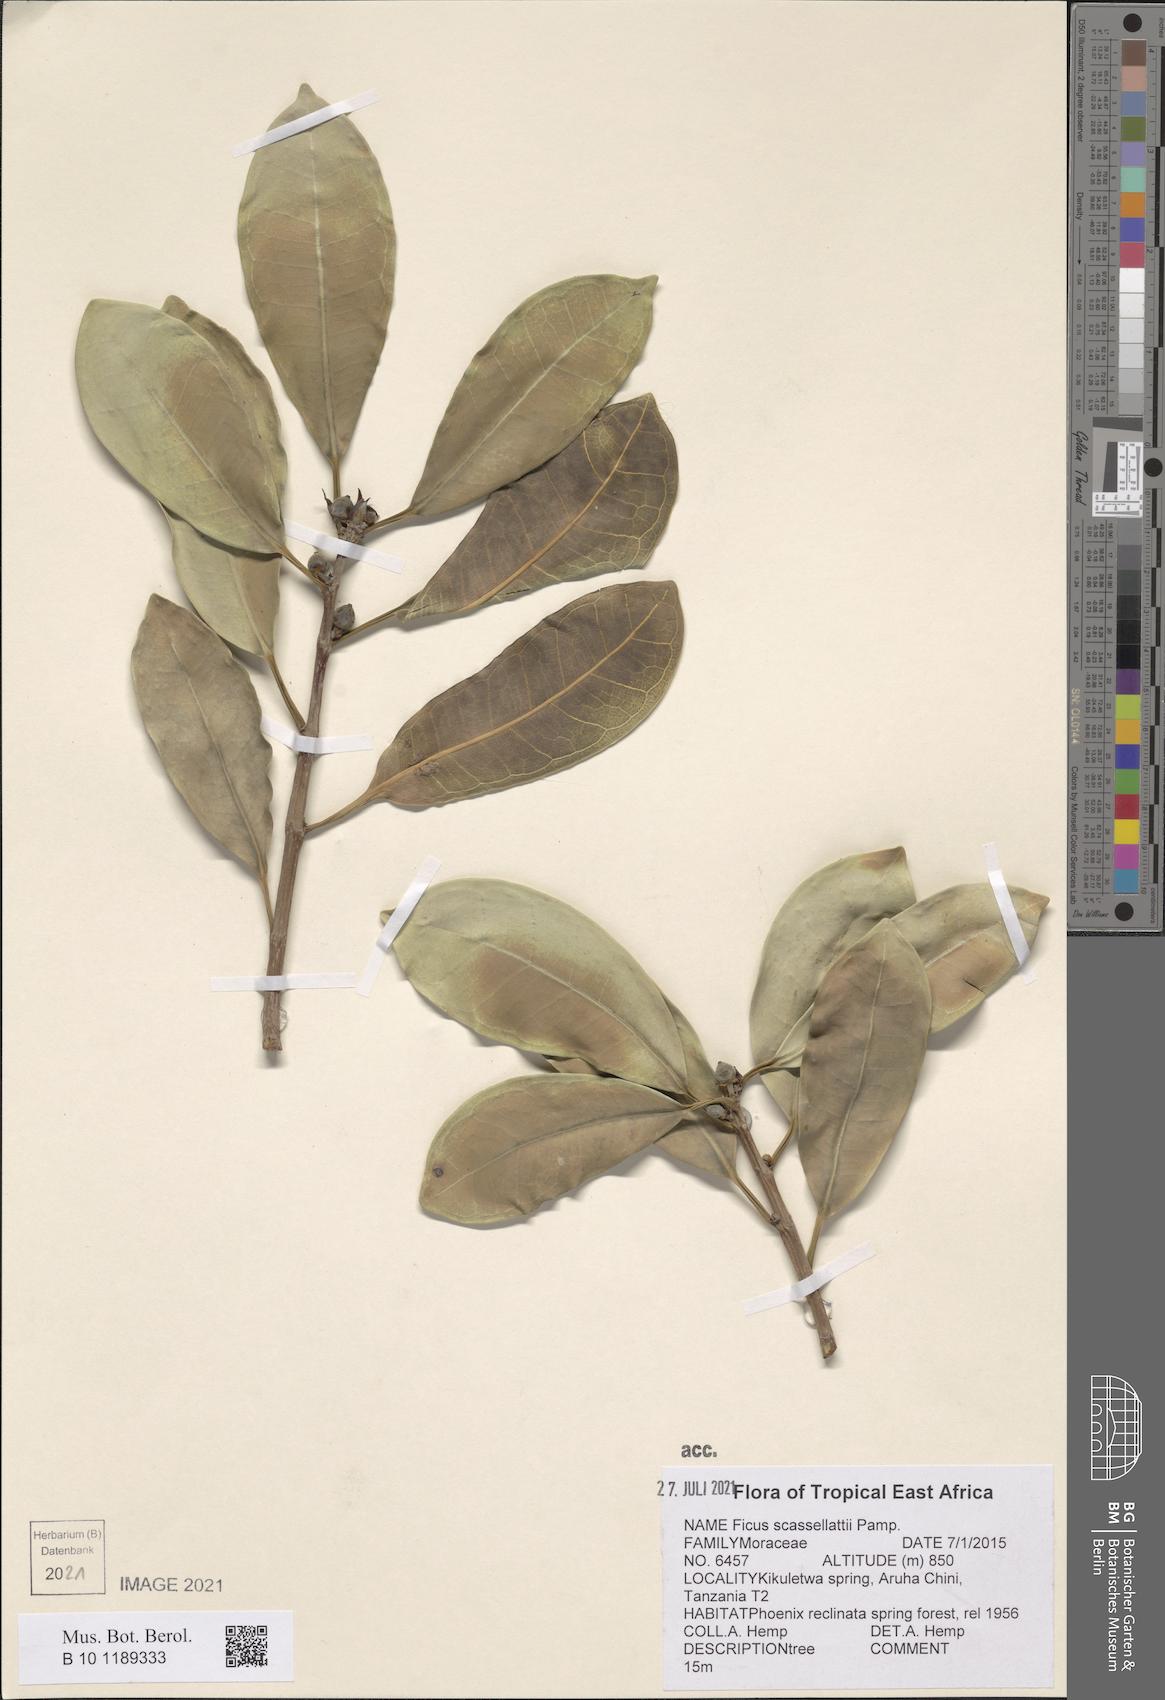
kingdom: Plantae
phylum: Tracheophyta
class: Magnoliopsida
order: Rosales
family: Moraceae
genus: Ficus
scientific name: Ficus scassellatii
